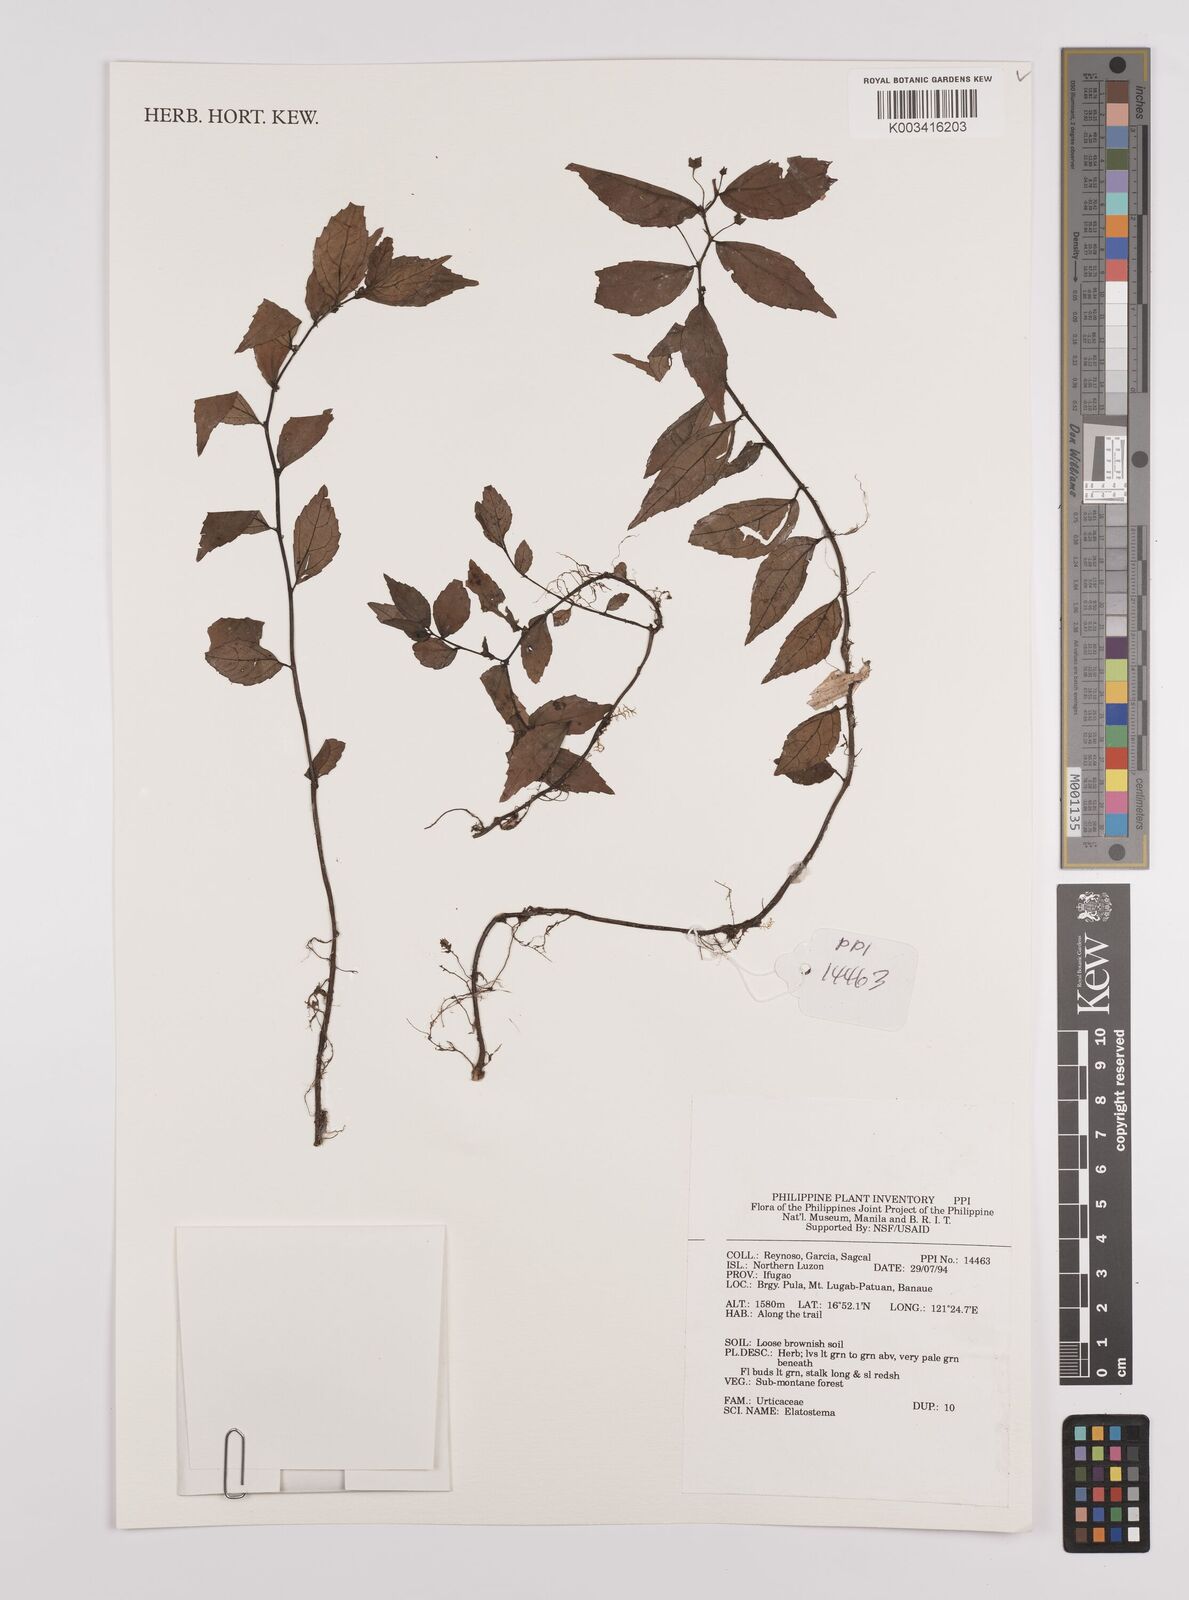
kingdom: Plantae
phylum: Tracheophyta
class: Magnoliopsida
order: Rosales
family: Urticaceae
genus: Elatostema
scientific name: Elatostema
